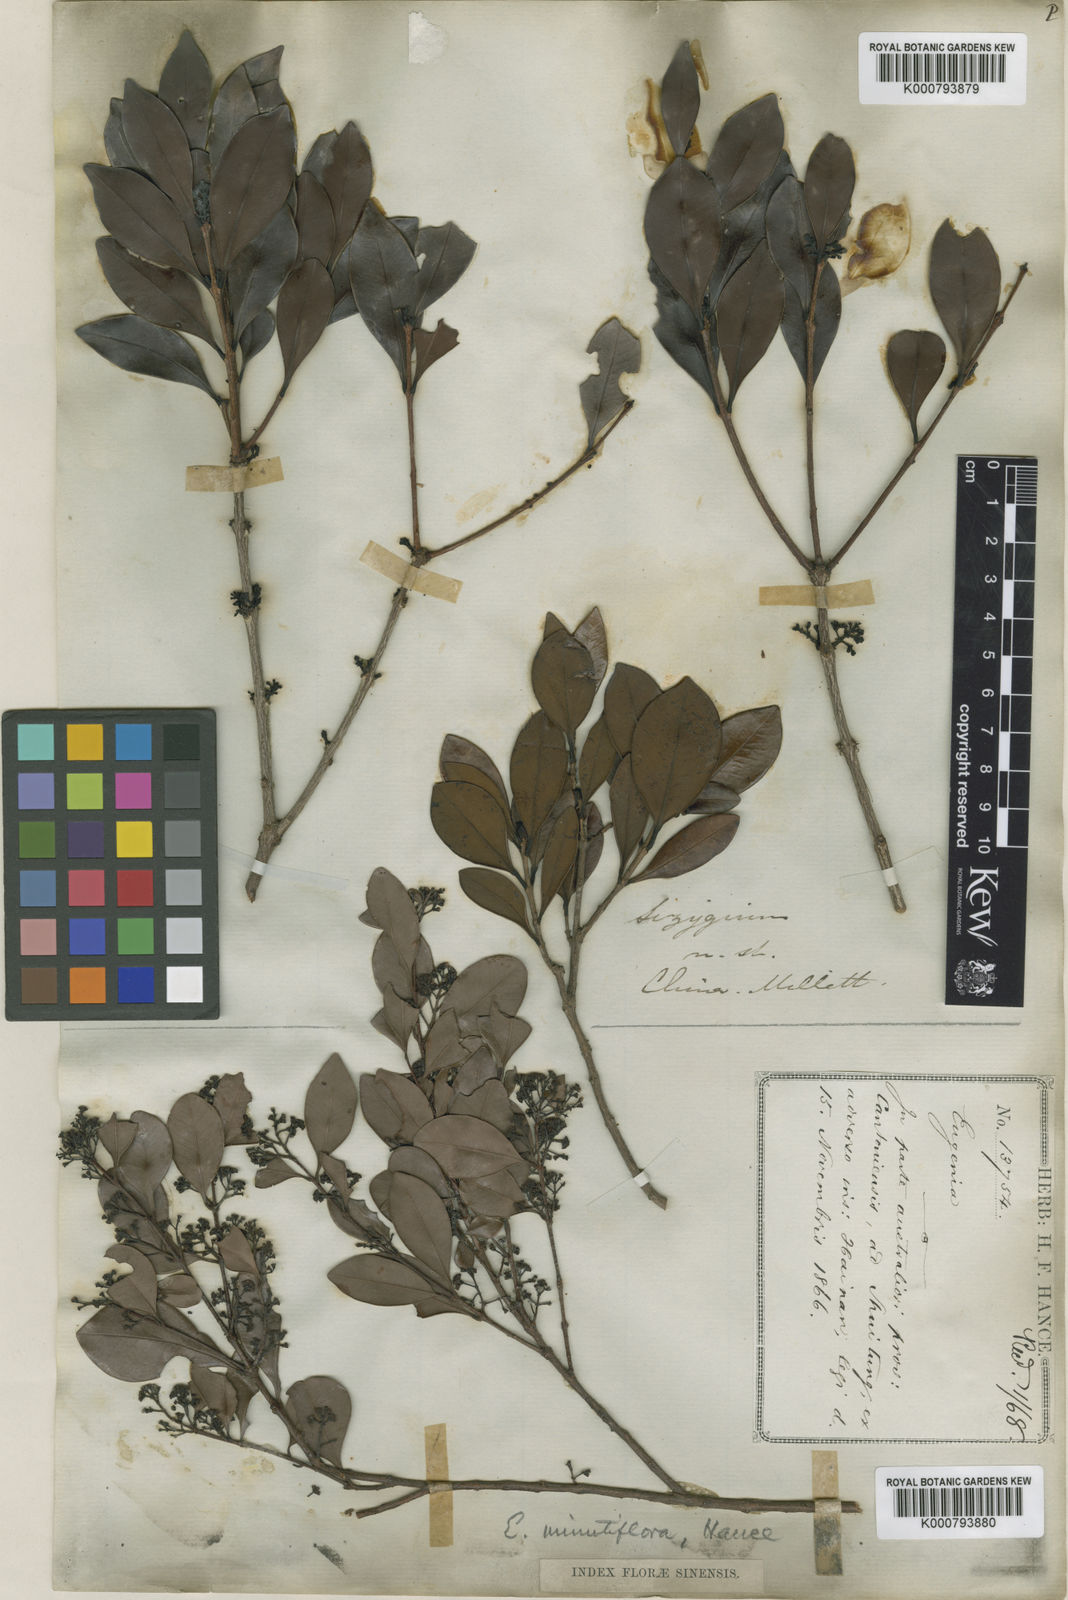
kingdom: Plantae
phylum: Tracheophyta
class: Magnoliopsida
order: Myrtales
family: Myrtaceae
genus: Syzygium
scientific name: Syzygium hancei
